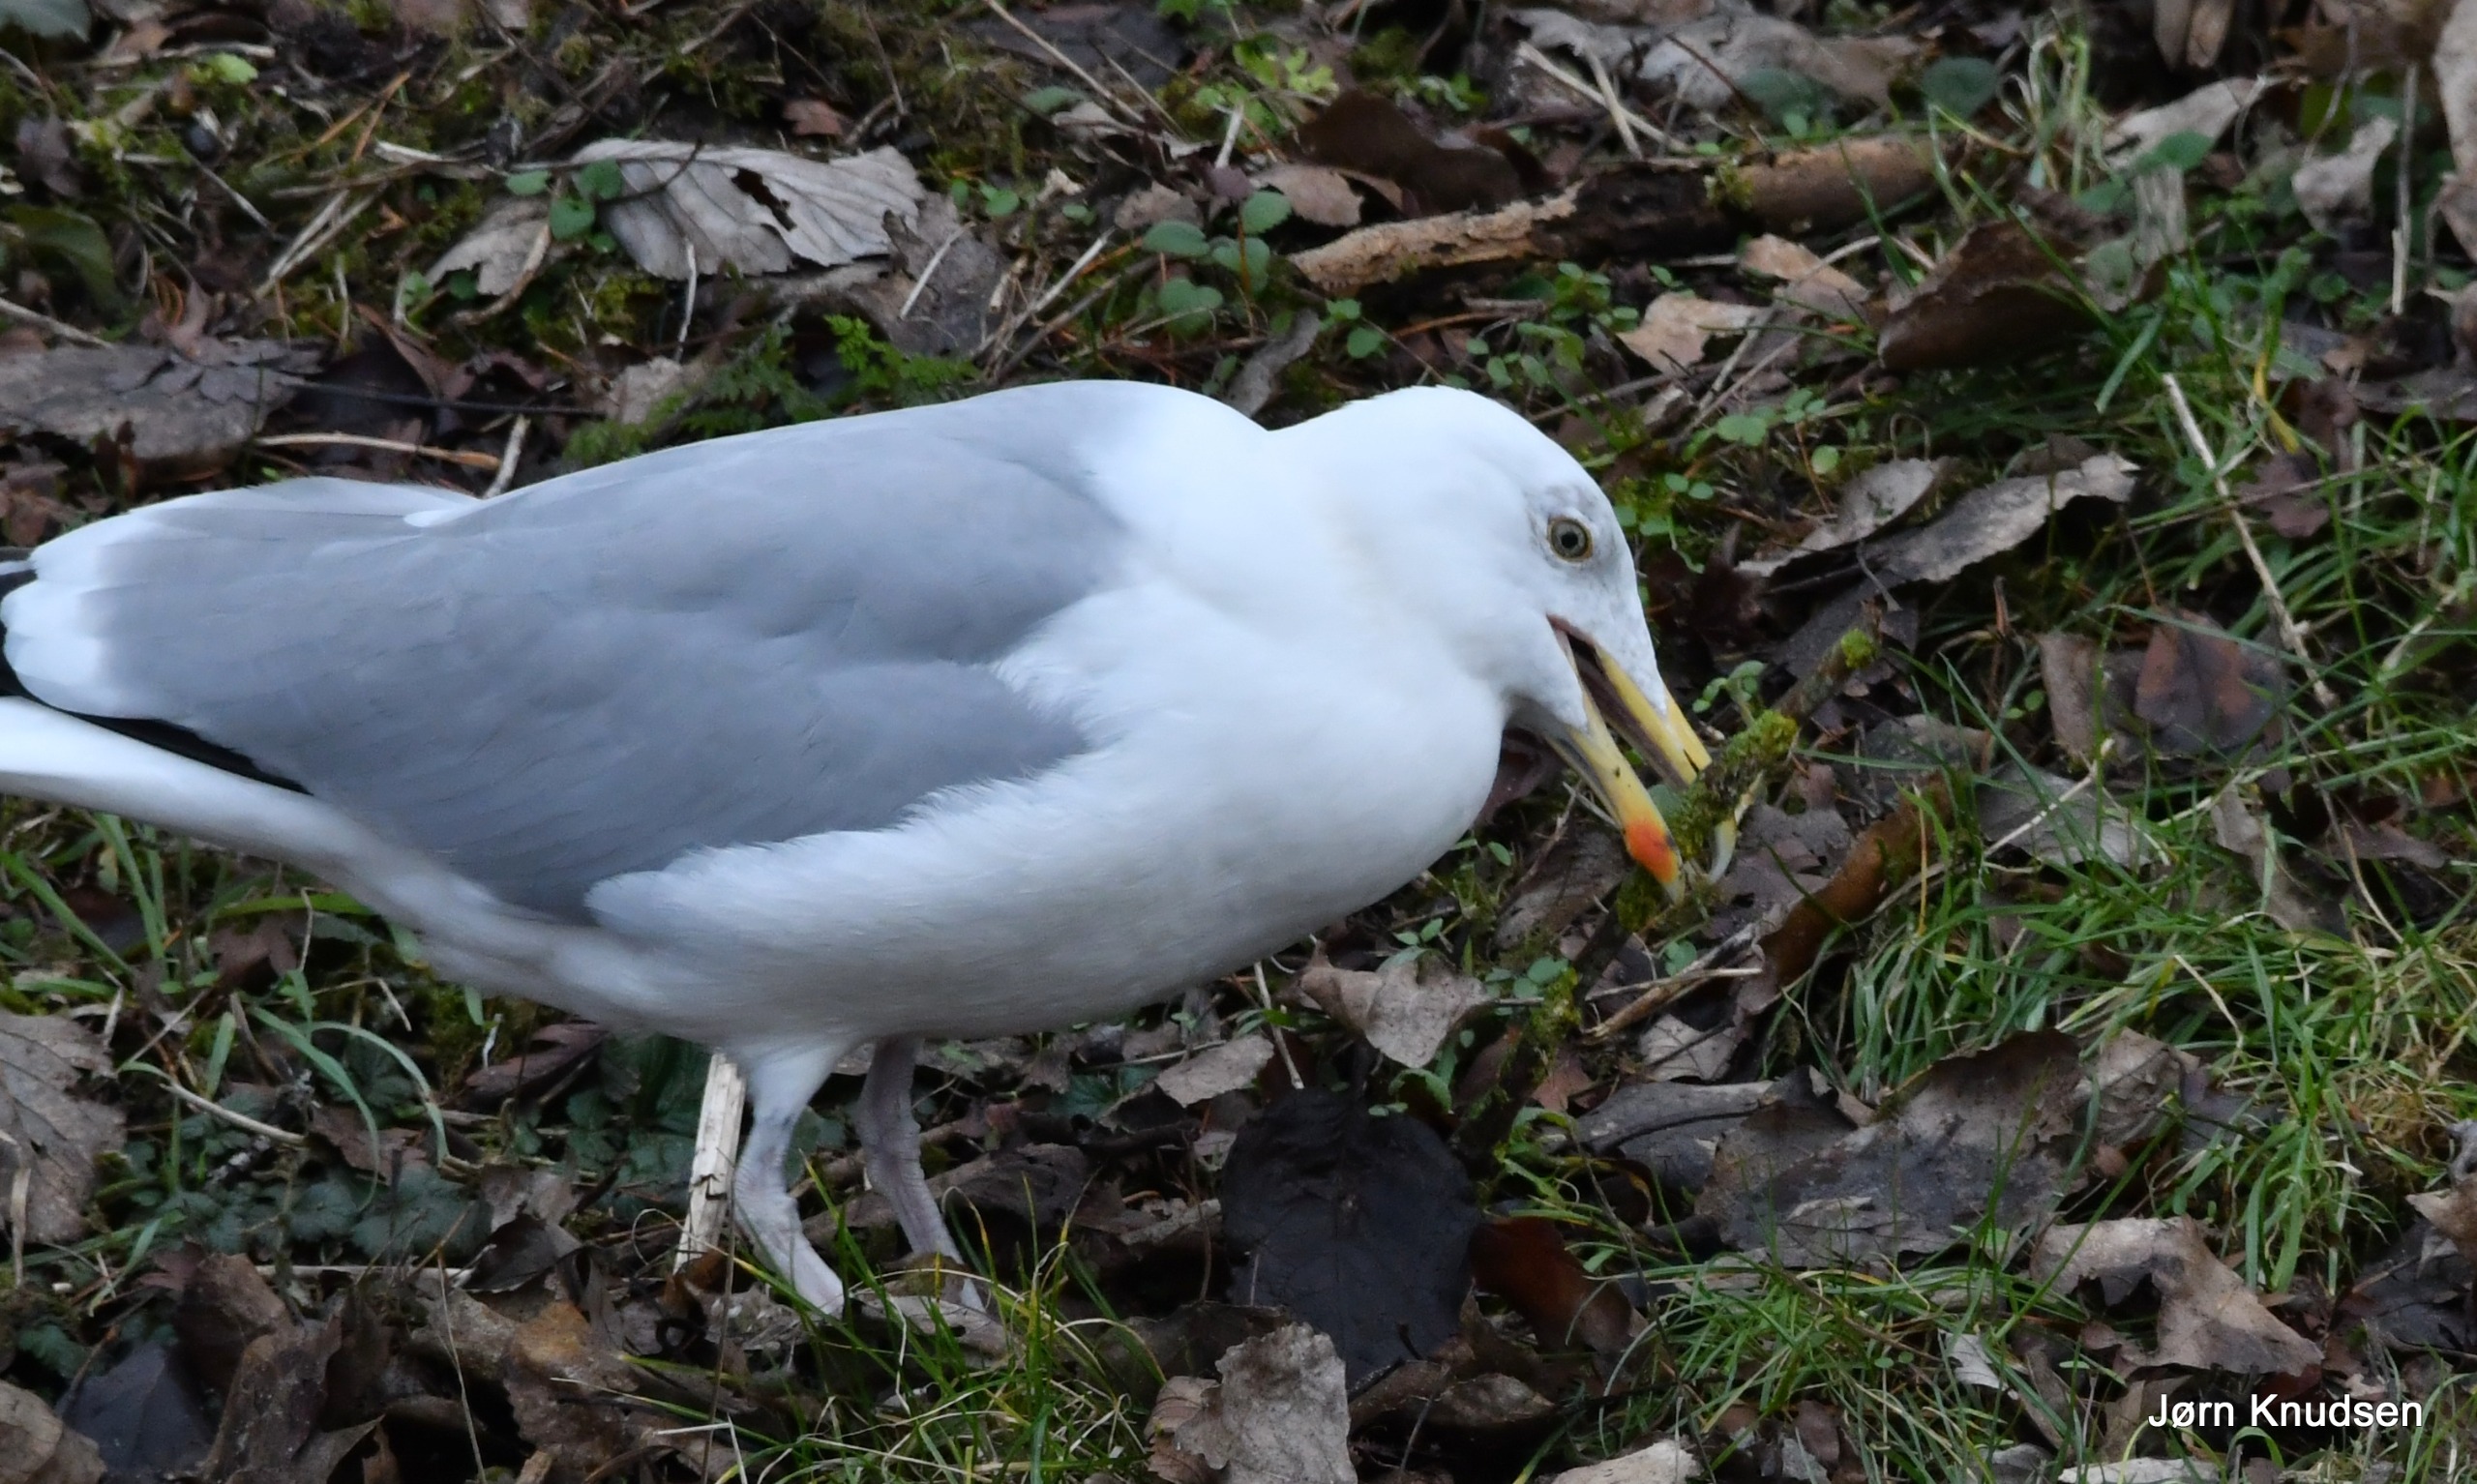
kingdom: Animalia
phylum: Chordata
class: Aves
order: Charadriiformes
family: Laridae
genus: Larus
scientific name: Larus argentatus
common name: Sølvmåge
